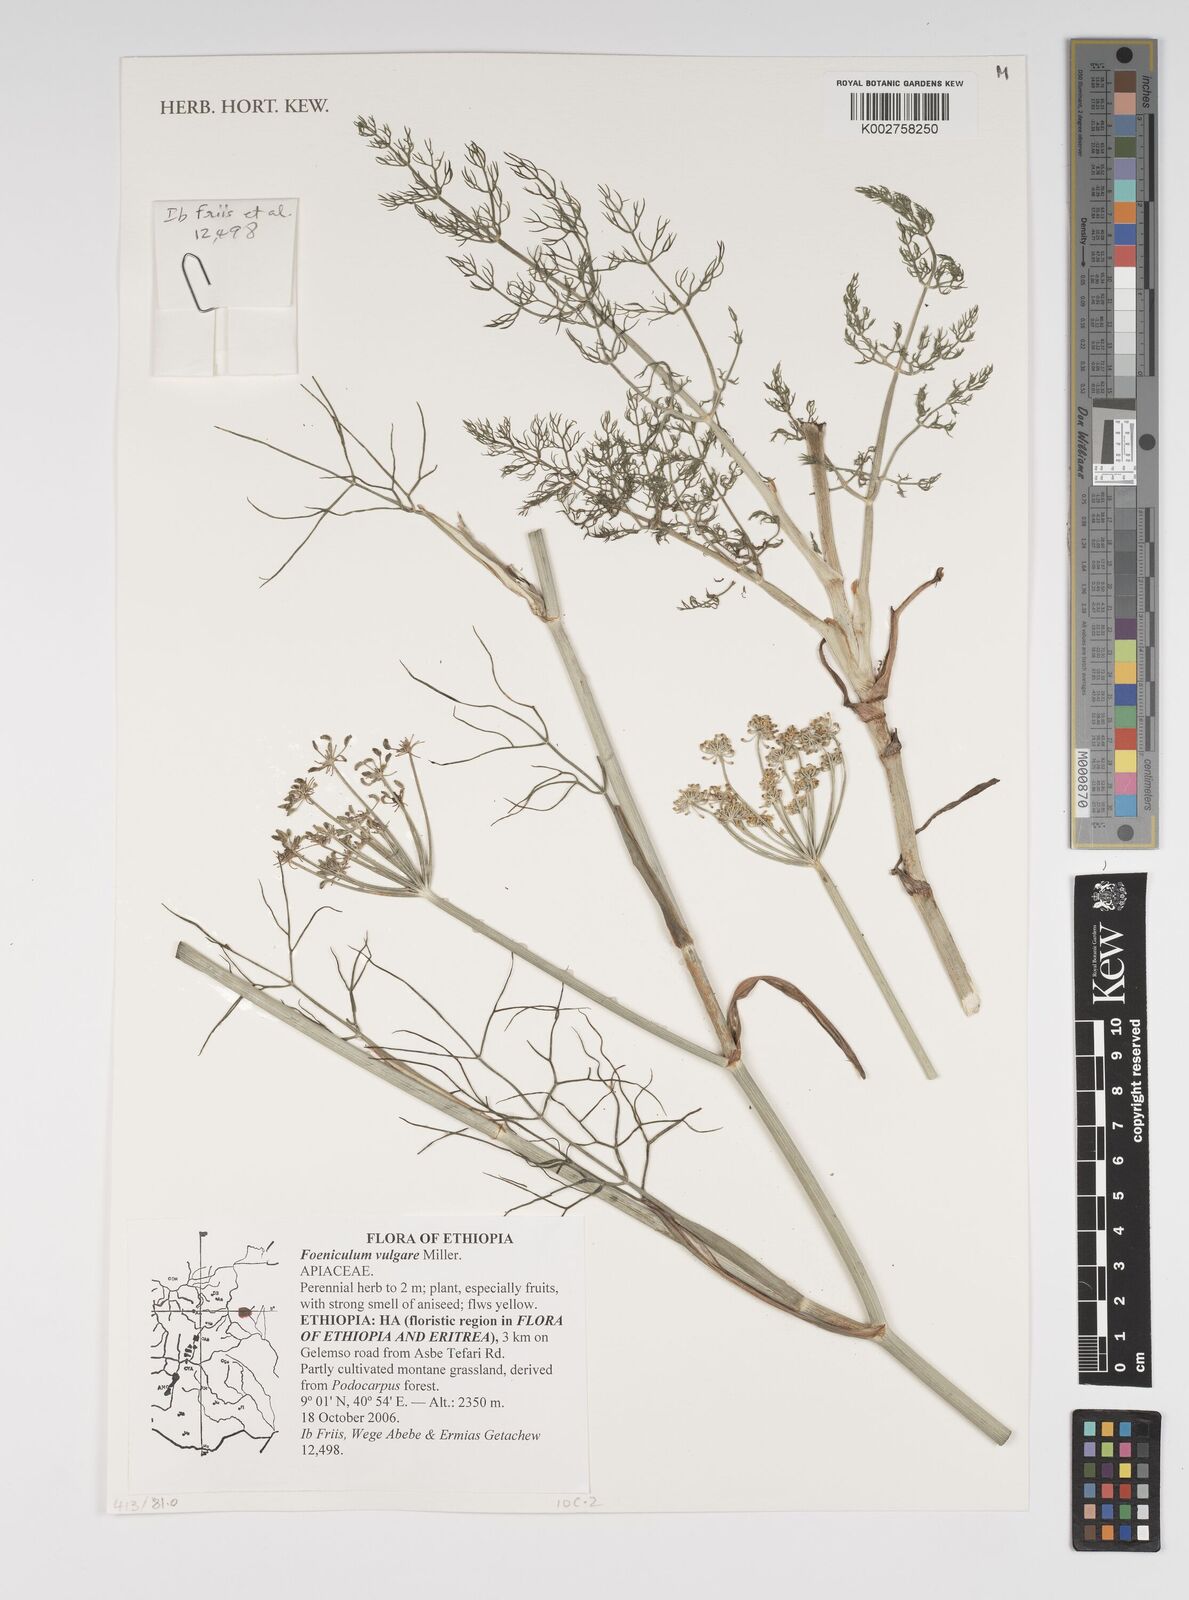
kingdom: Plantae
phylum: Tracheophyta
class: Magnoliopsida
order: Apiales
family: Apiaceae
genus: Foeniculum
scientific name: Foeniculum vulgare
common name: Fennel
